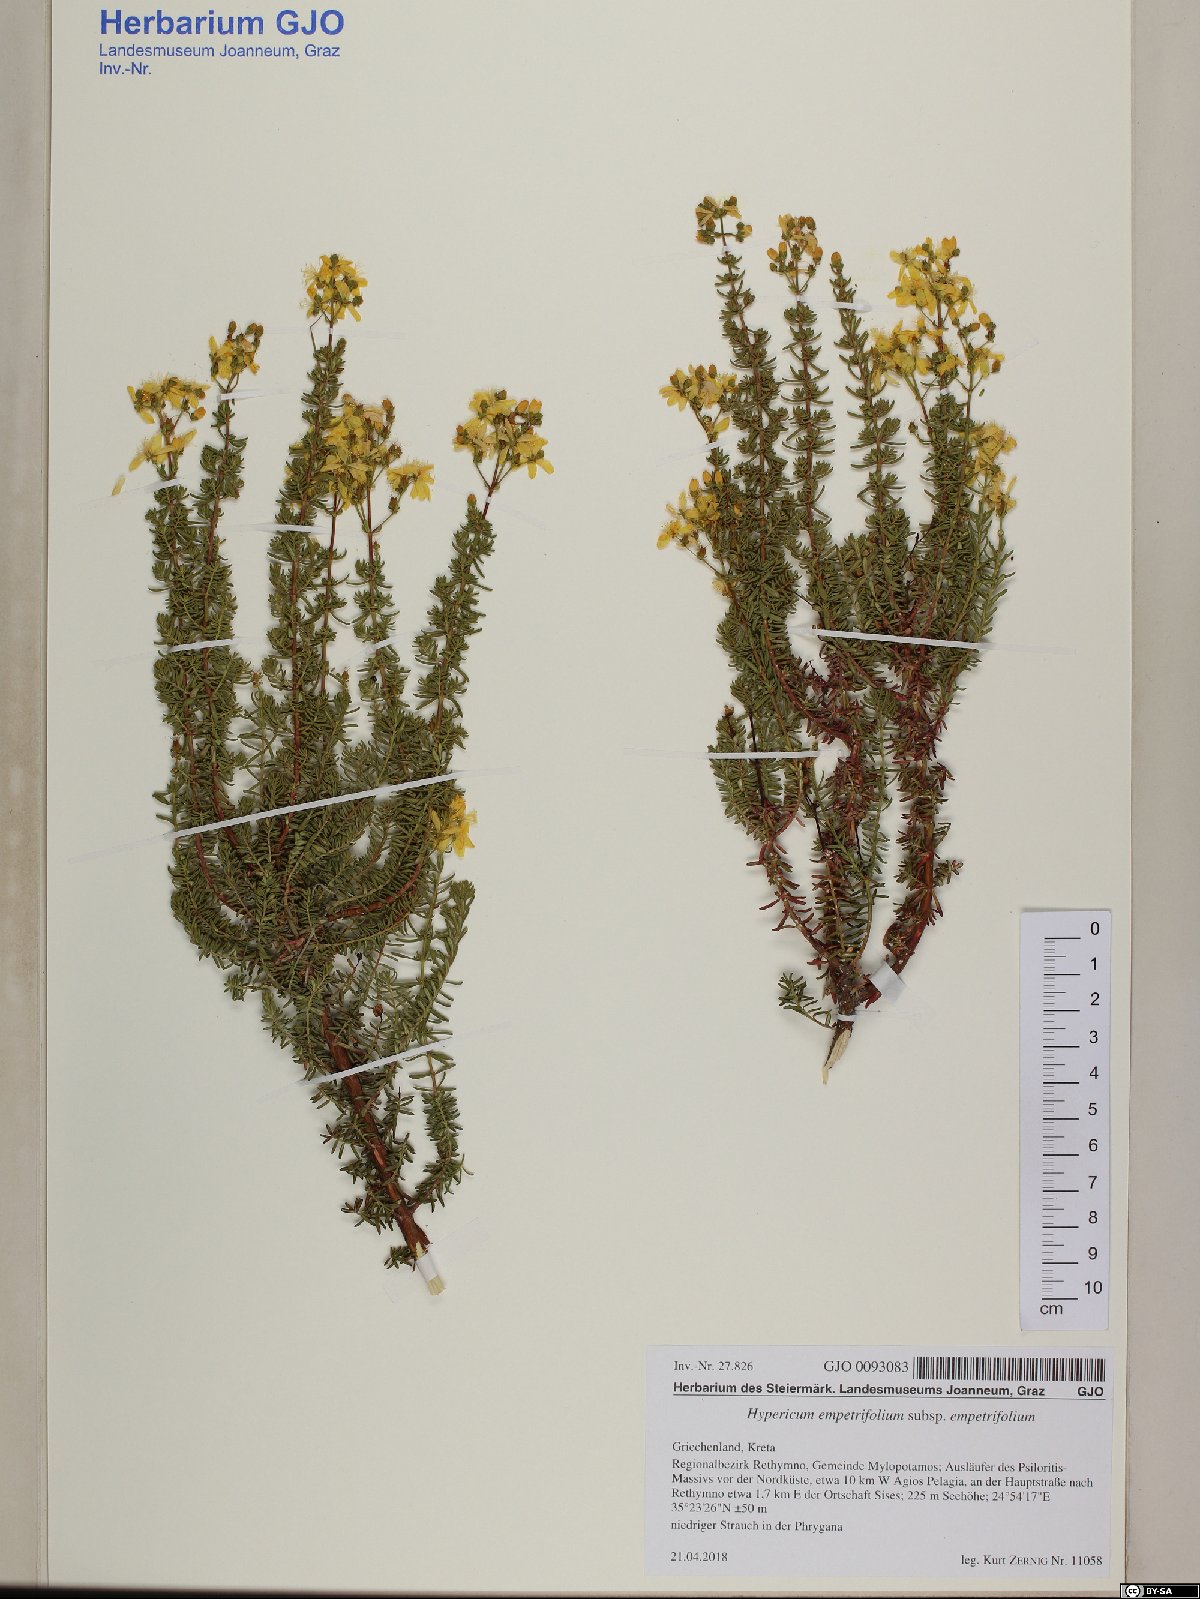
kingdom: Plantae
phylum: Tracheophyta
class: Magnoliopsida
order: Malpighiales
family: Hypericaceae
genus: Hypericum
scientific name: Hypericum empetrifolium
